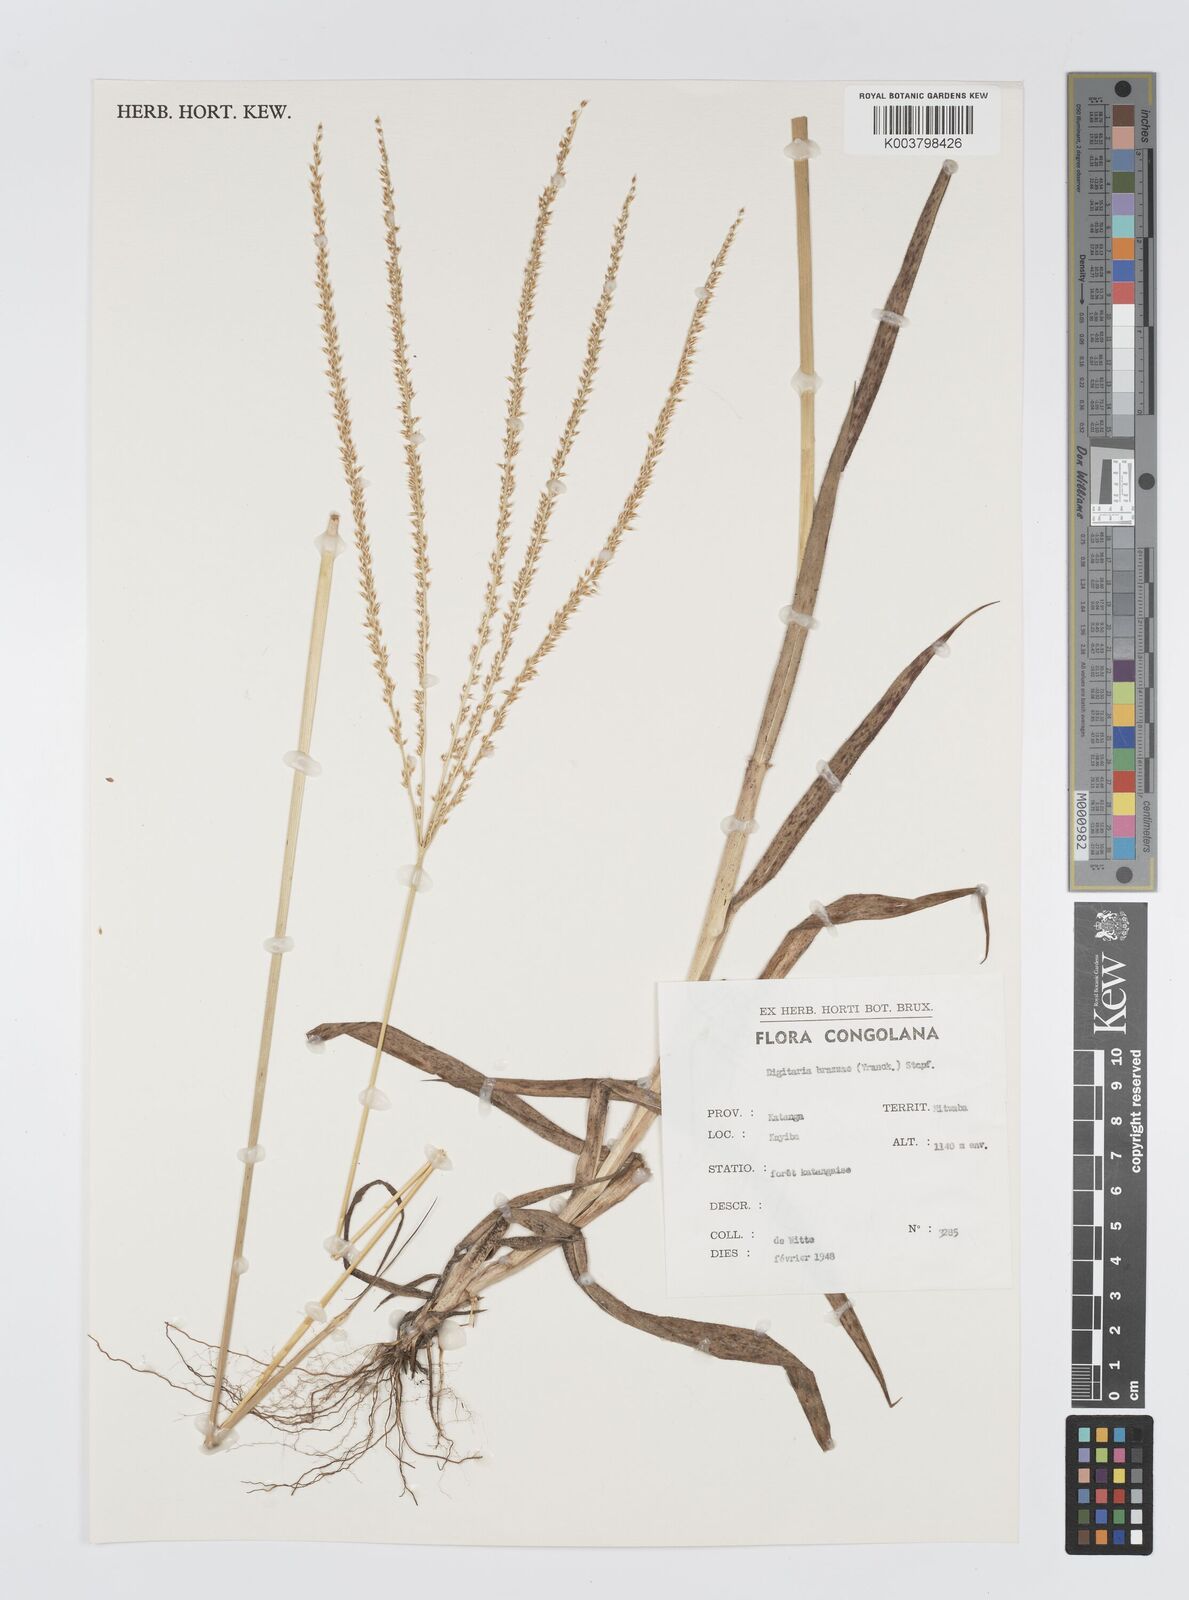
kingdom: Plantae
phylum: Tracheophyta
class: Liliopsida
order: Poales
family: Poaceae
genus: Digitaria
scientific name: Digitaria gayana
